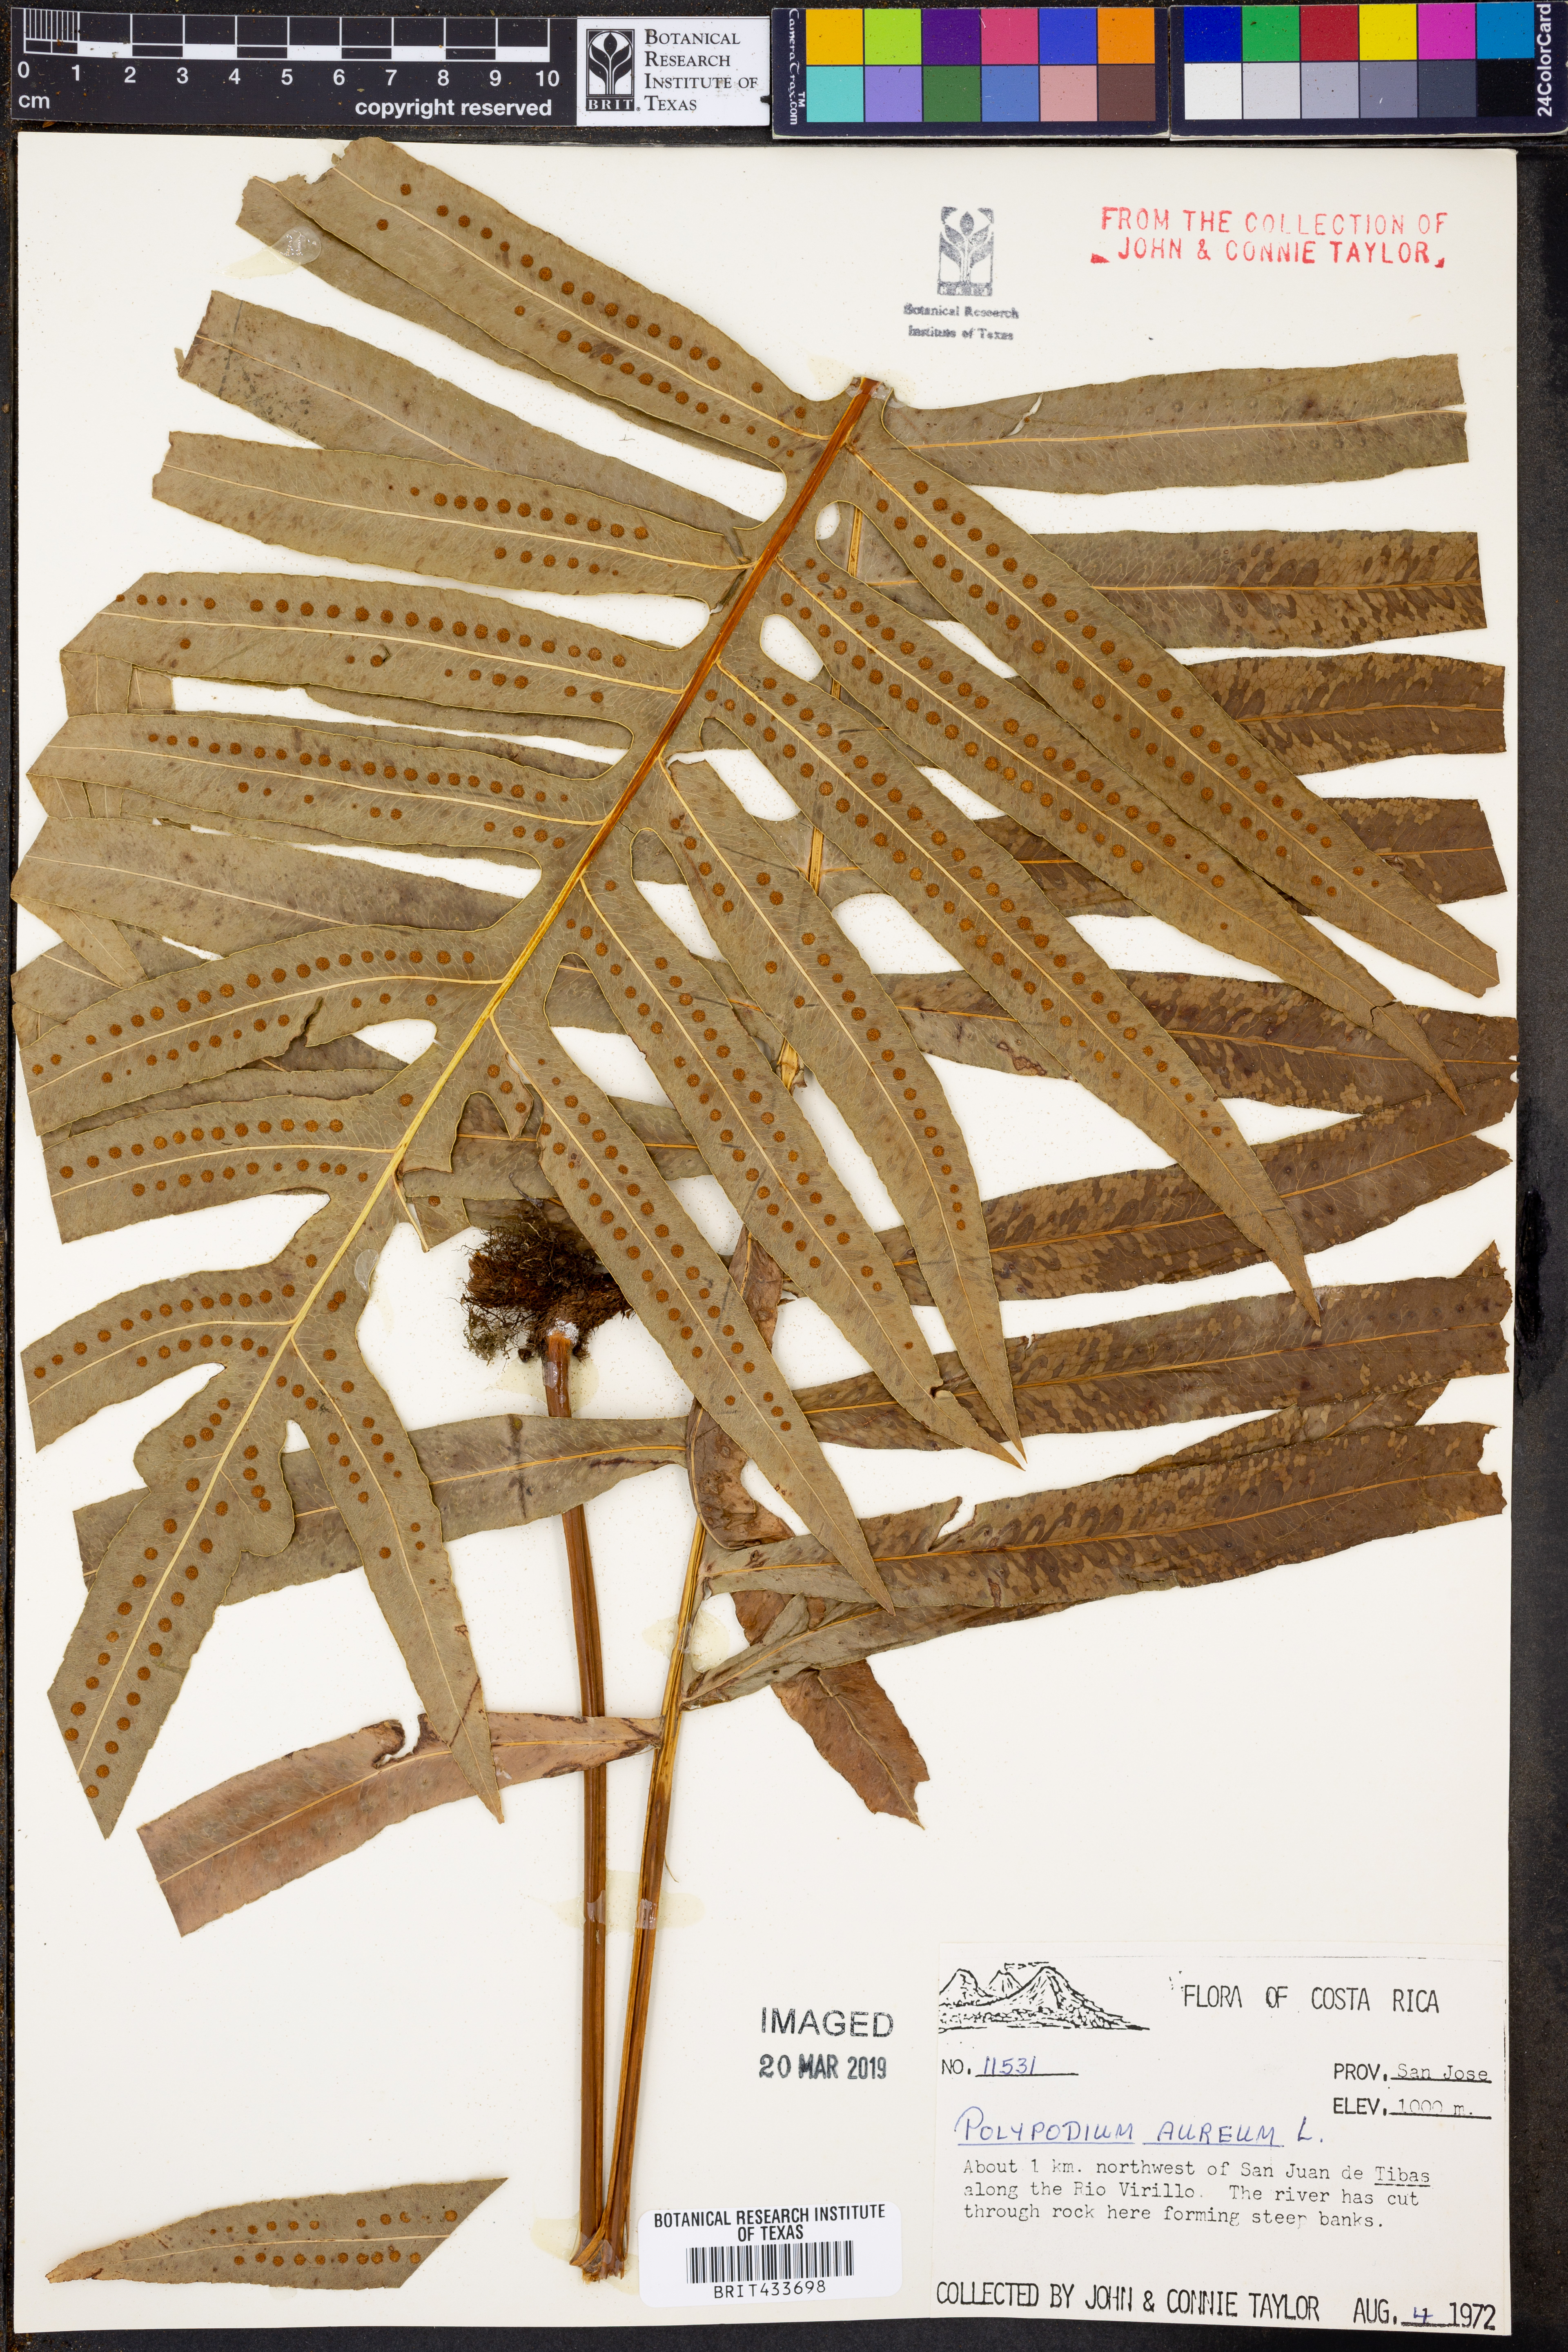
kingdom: Plantae
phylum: Tracheophyta
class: Polypodiopsida
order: Polypodiales
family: Polypodiaceae
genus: Phlebodium
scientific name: Phlebodium aureum
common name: Gold-foot fern
